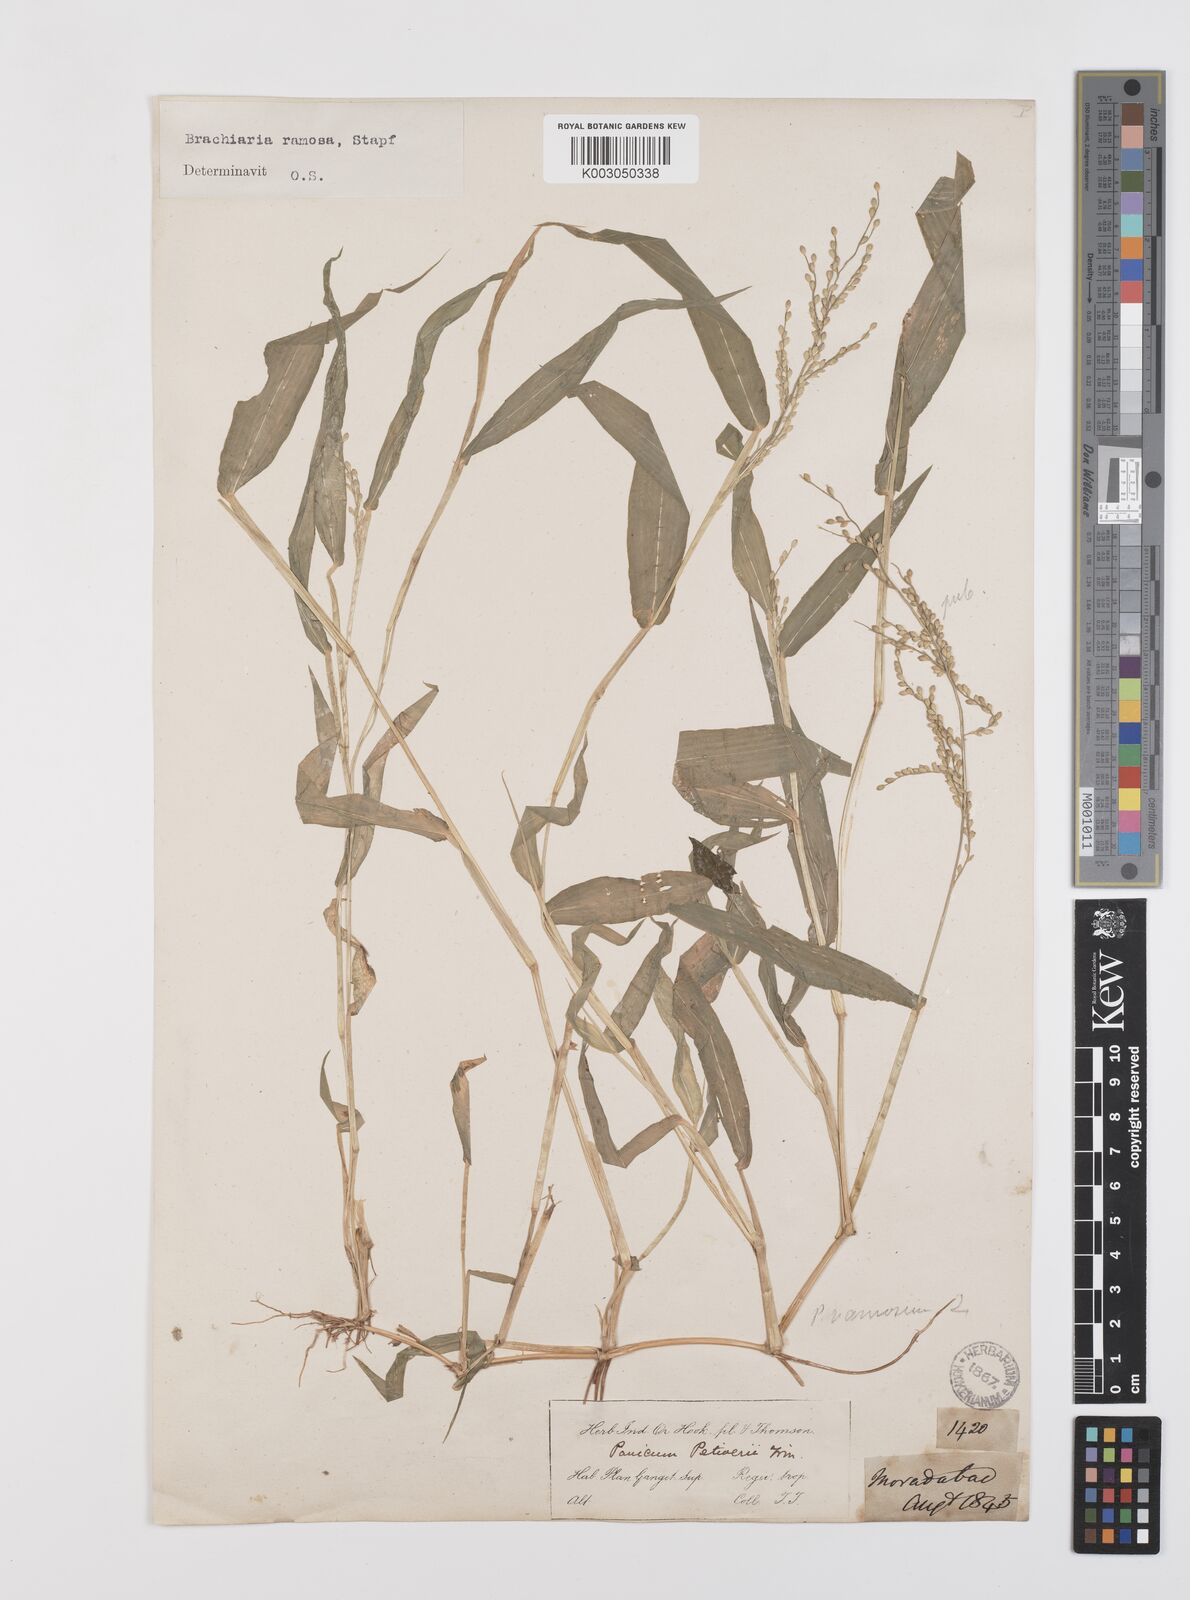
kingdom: Plantae
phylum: Tracheophyta
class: Liliopsida
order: Poales
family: Poaceae
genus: Urochloa
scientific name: Urochloa ramosa
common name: Browntop millet
